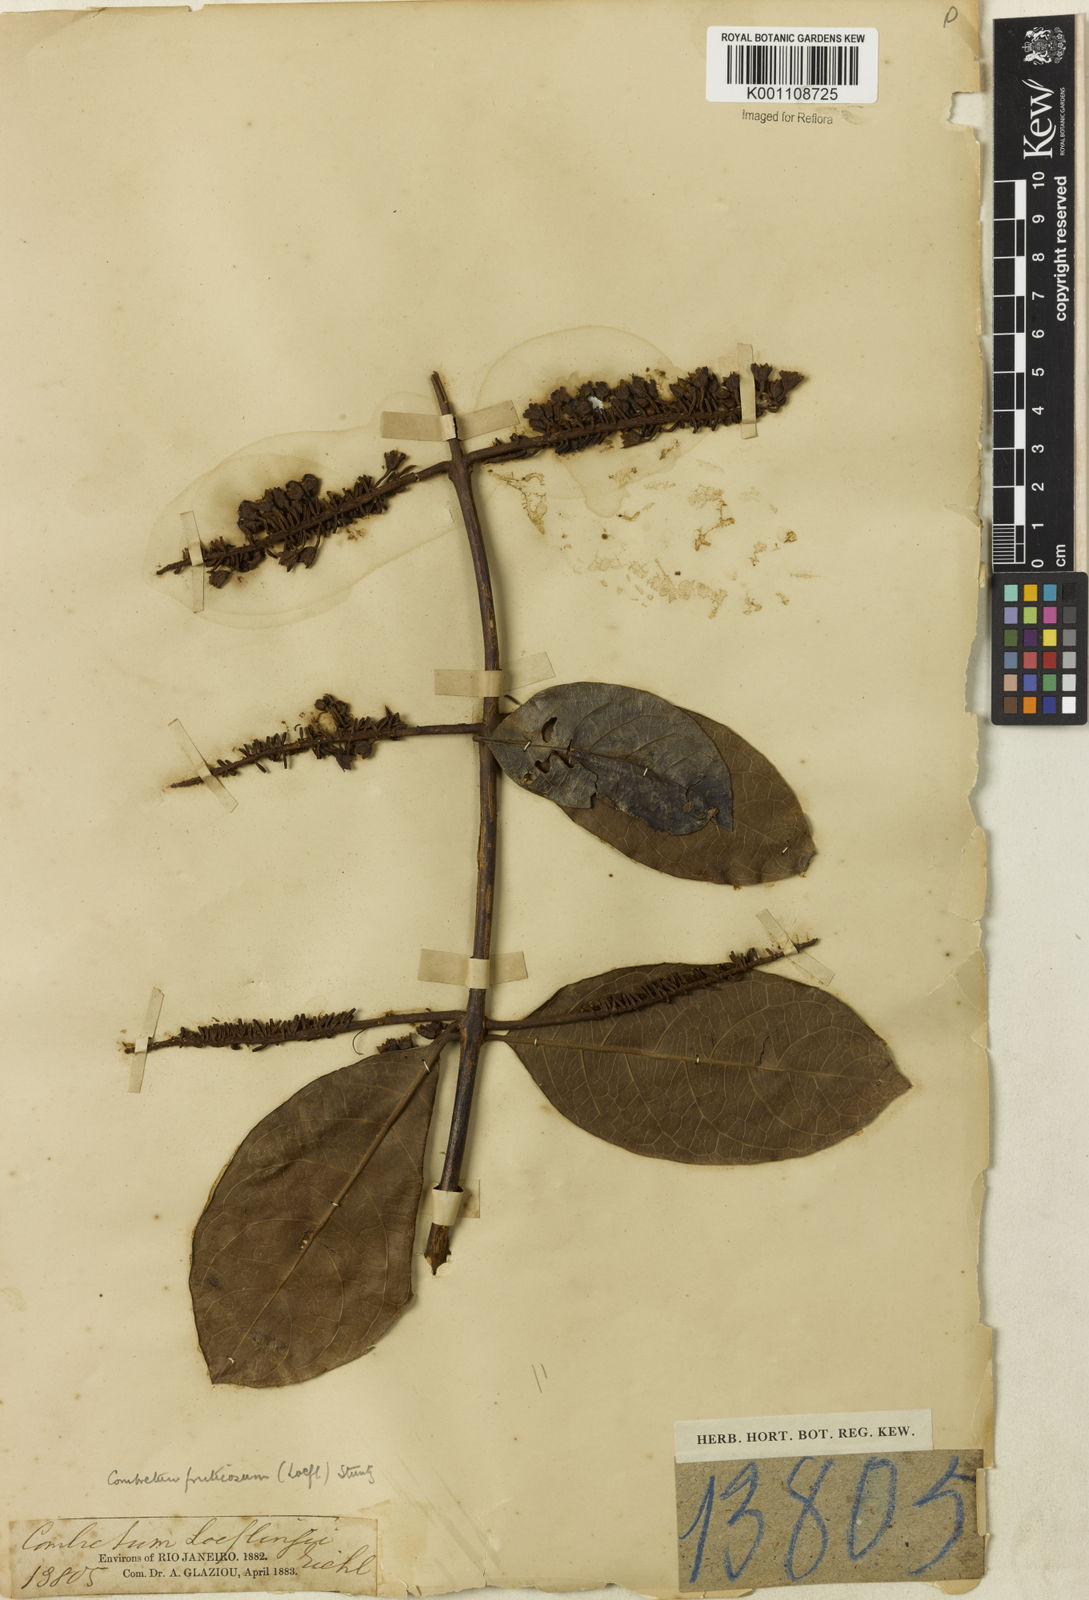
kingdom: Plantae
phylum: Tracheophyta
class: Magnoliopsida
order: Myrtales
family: Combretaceae
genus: Combretum
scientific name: Combretum fruticosum
